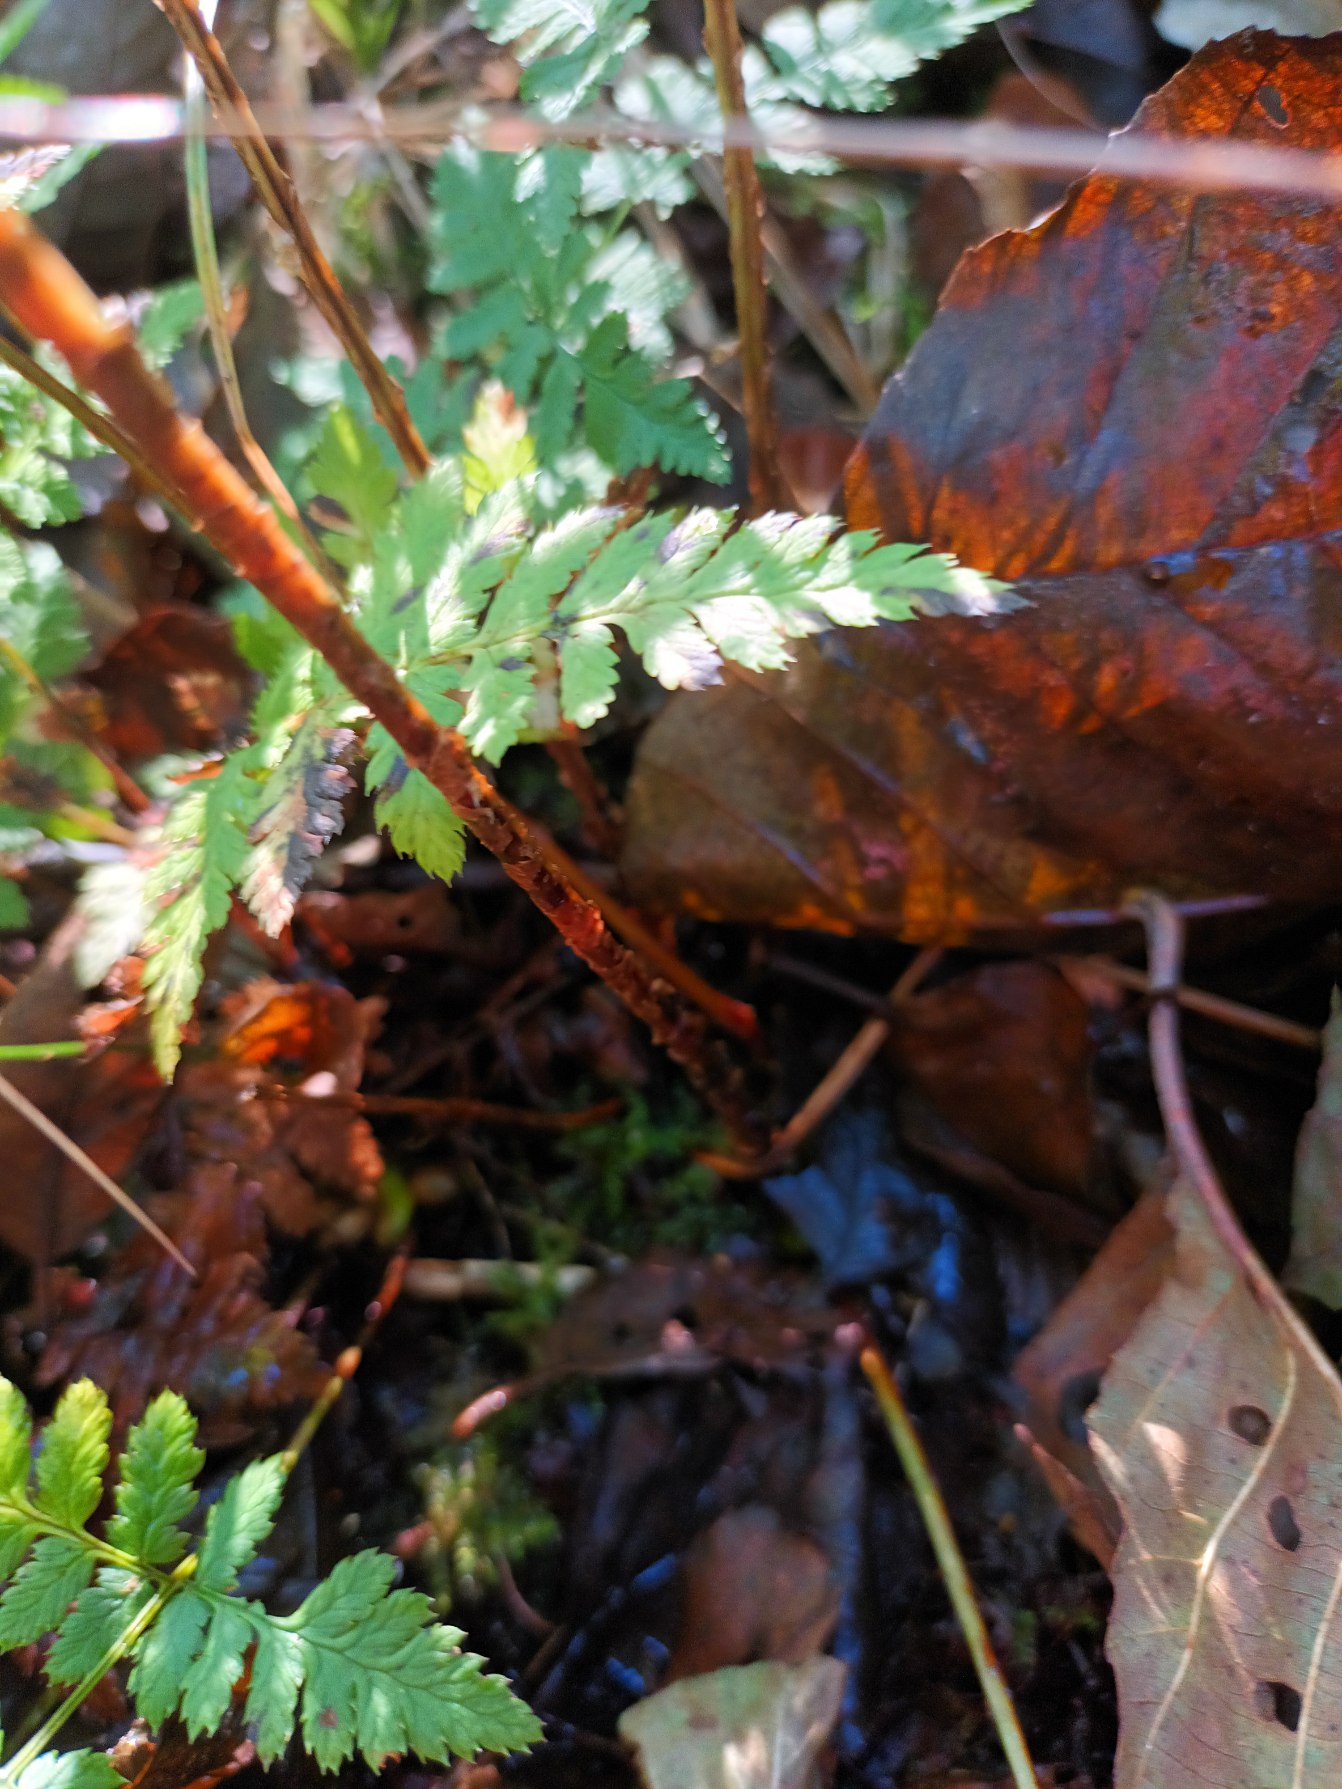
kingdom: Plantae
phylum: Tracheophyta
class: Polypodiopsida
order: Polypodiales
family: Dryopteridaceae
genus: Dryopteris
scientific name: Dryopteris carthusiana
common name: Smalbladet mangeløv
